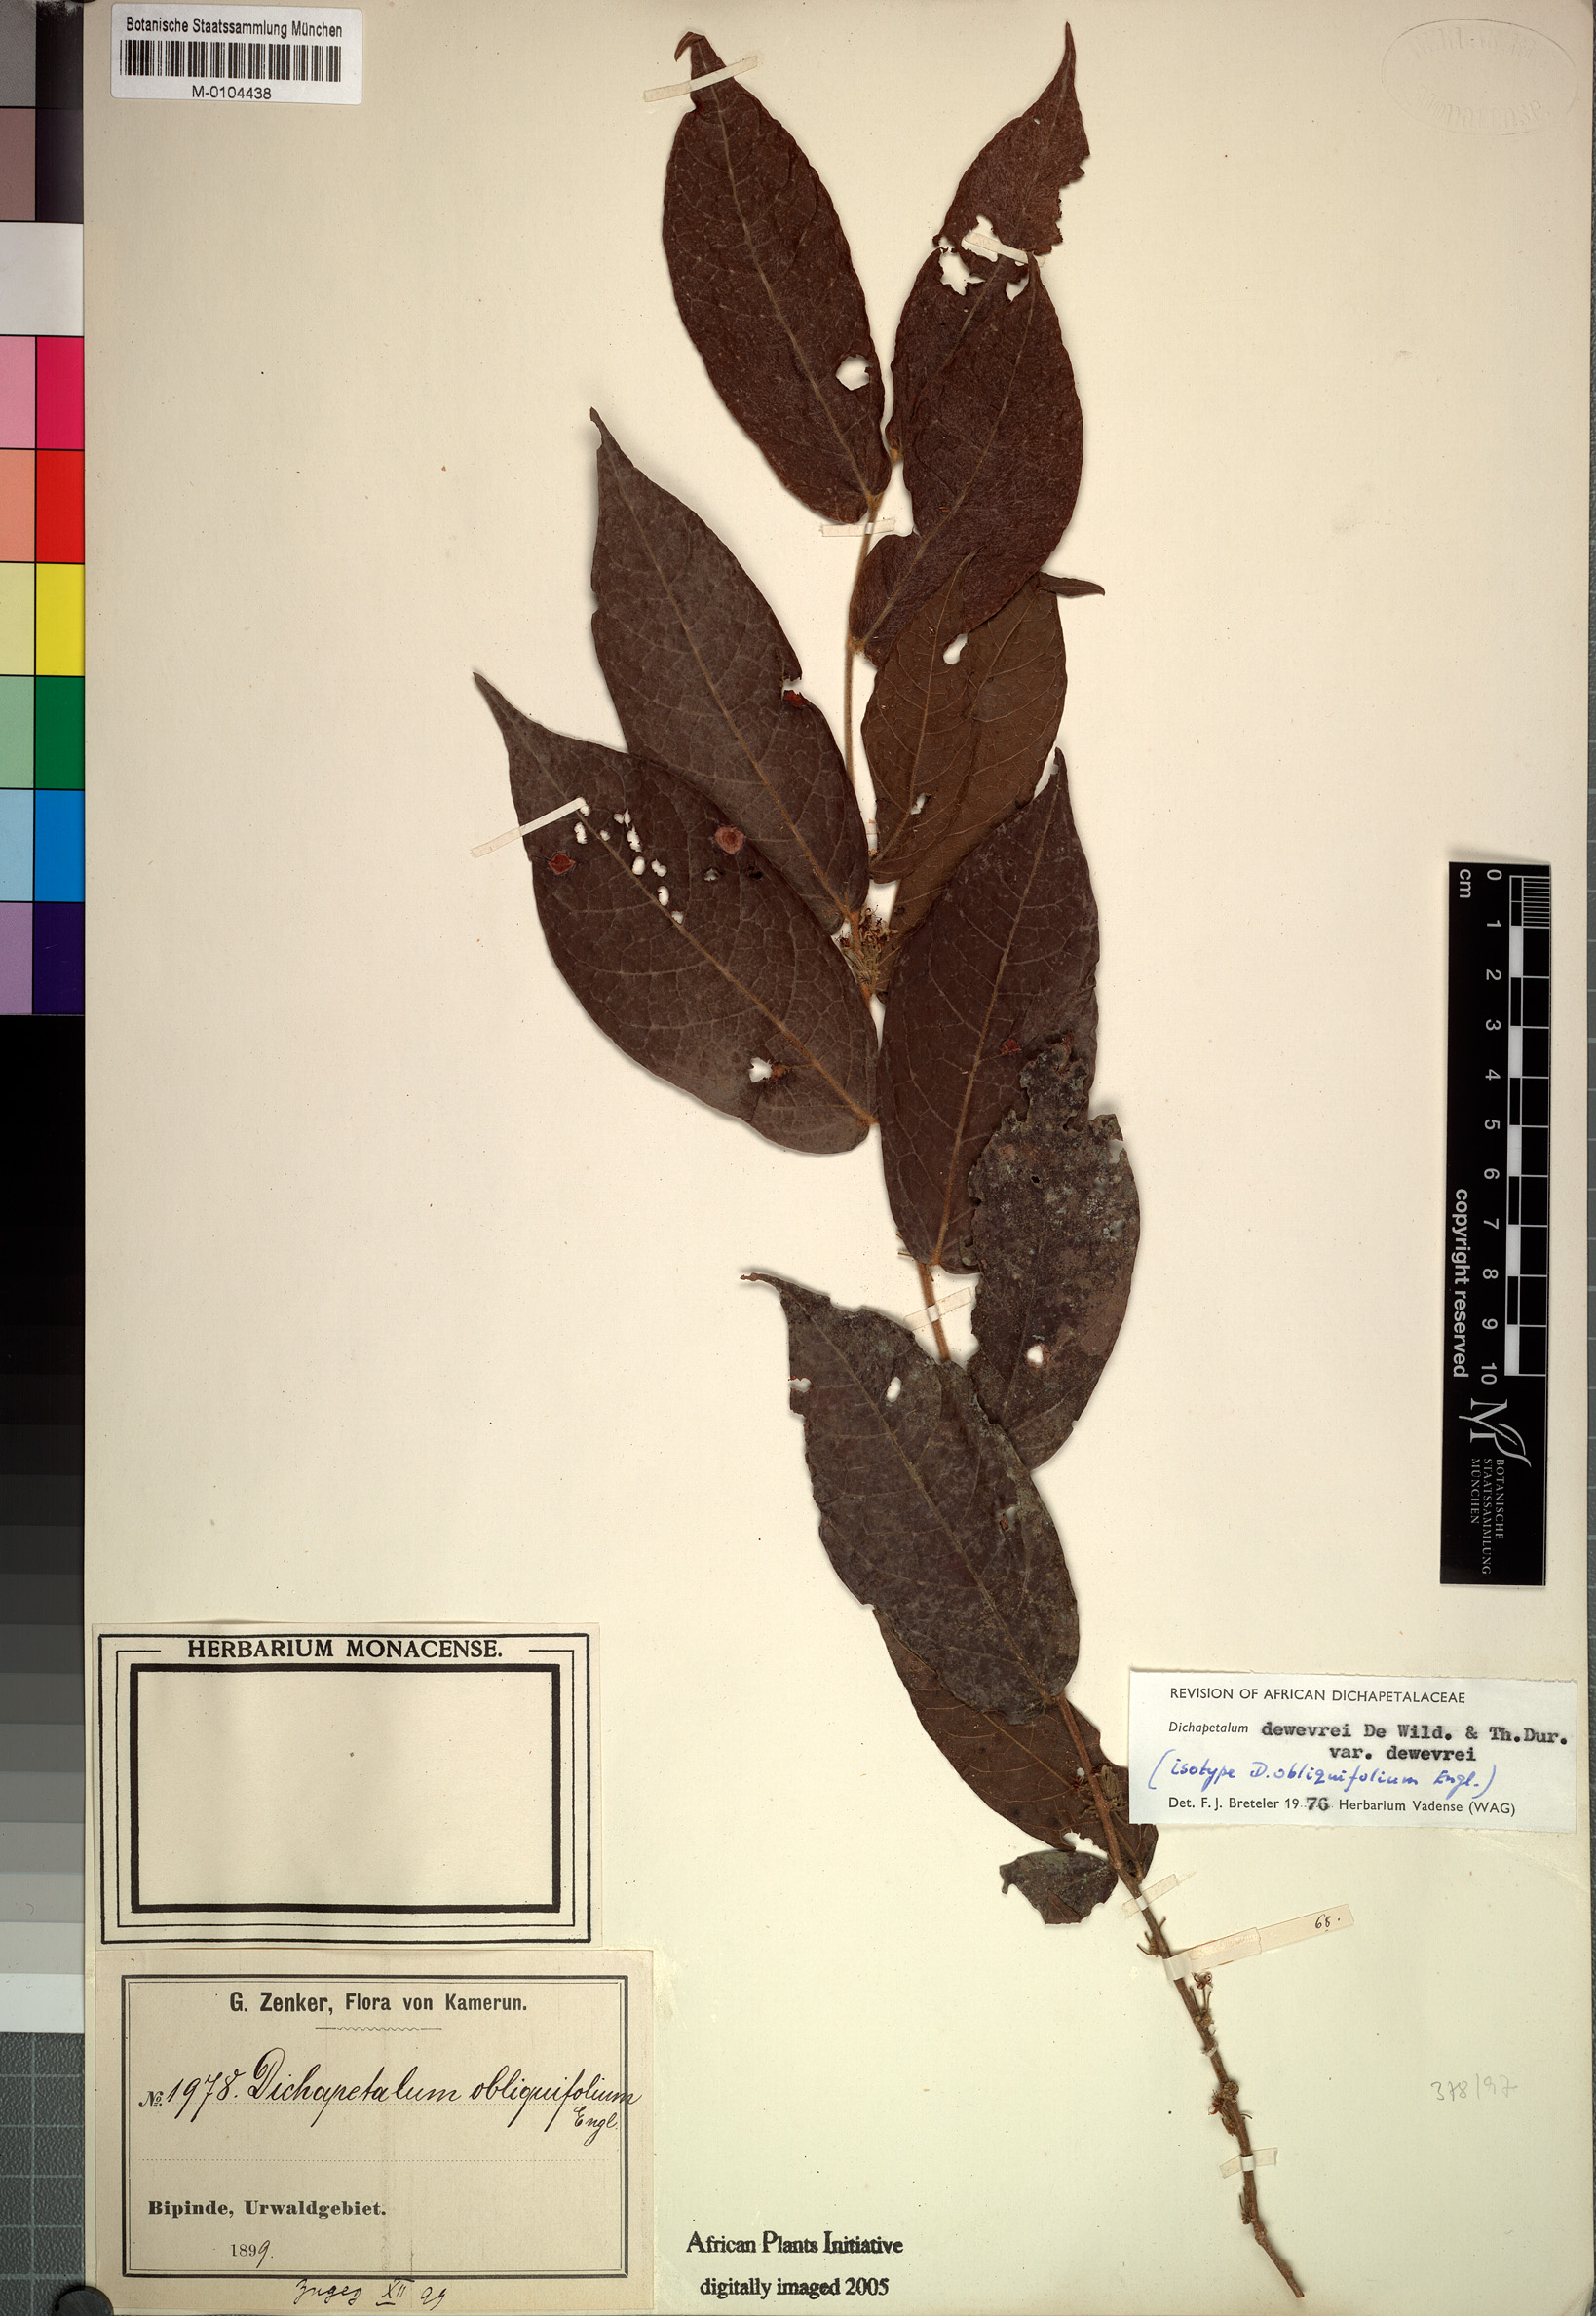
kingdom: Plantae
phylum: Tracheophyta
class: Magnoliopsida
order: Malpighiales
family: Dichapetalaceae
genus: Dichapetalum
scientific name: Dichapetalum dewevrei
